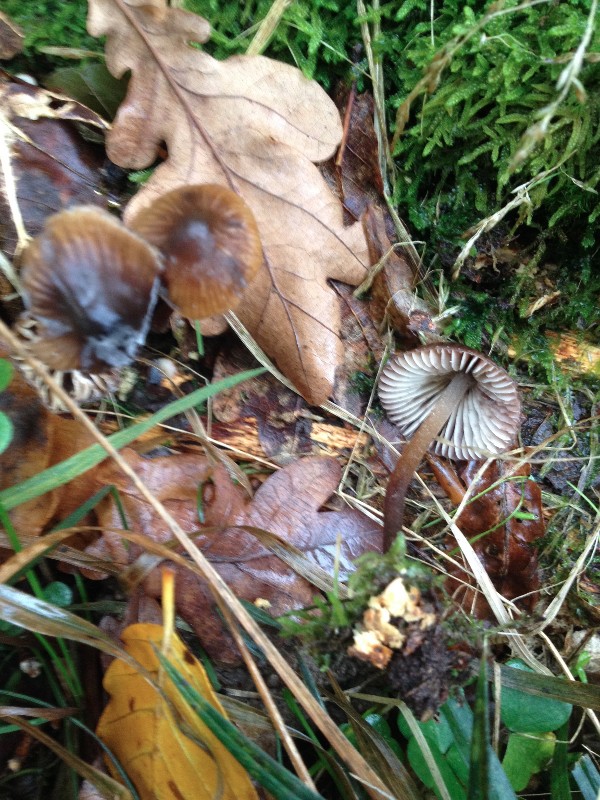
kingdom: Fungi
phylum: Basidiomycota
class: Agaricomycetes
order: Agaricales
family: Mycenaceae
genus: Mycena
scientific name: Mycena inclinata
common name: nikkende huesvamp
